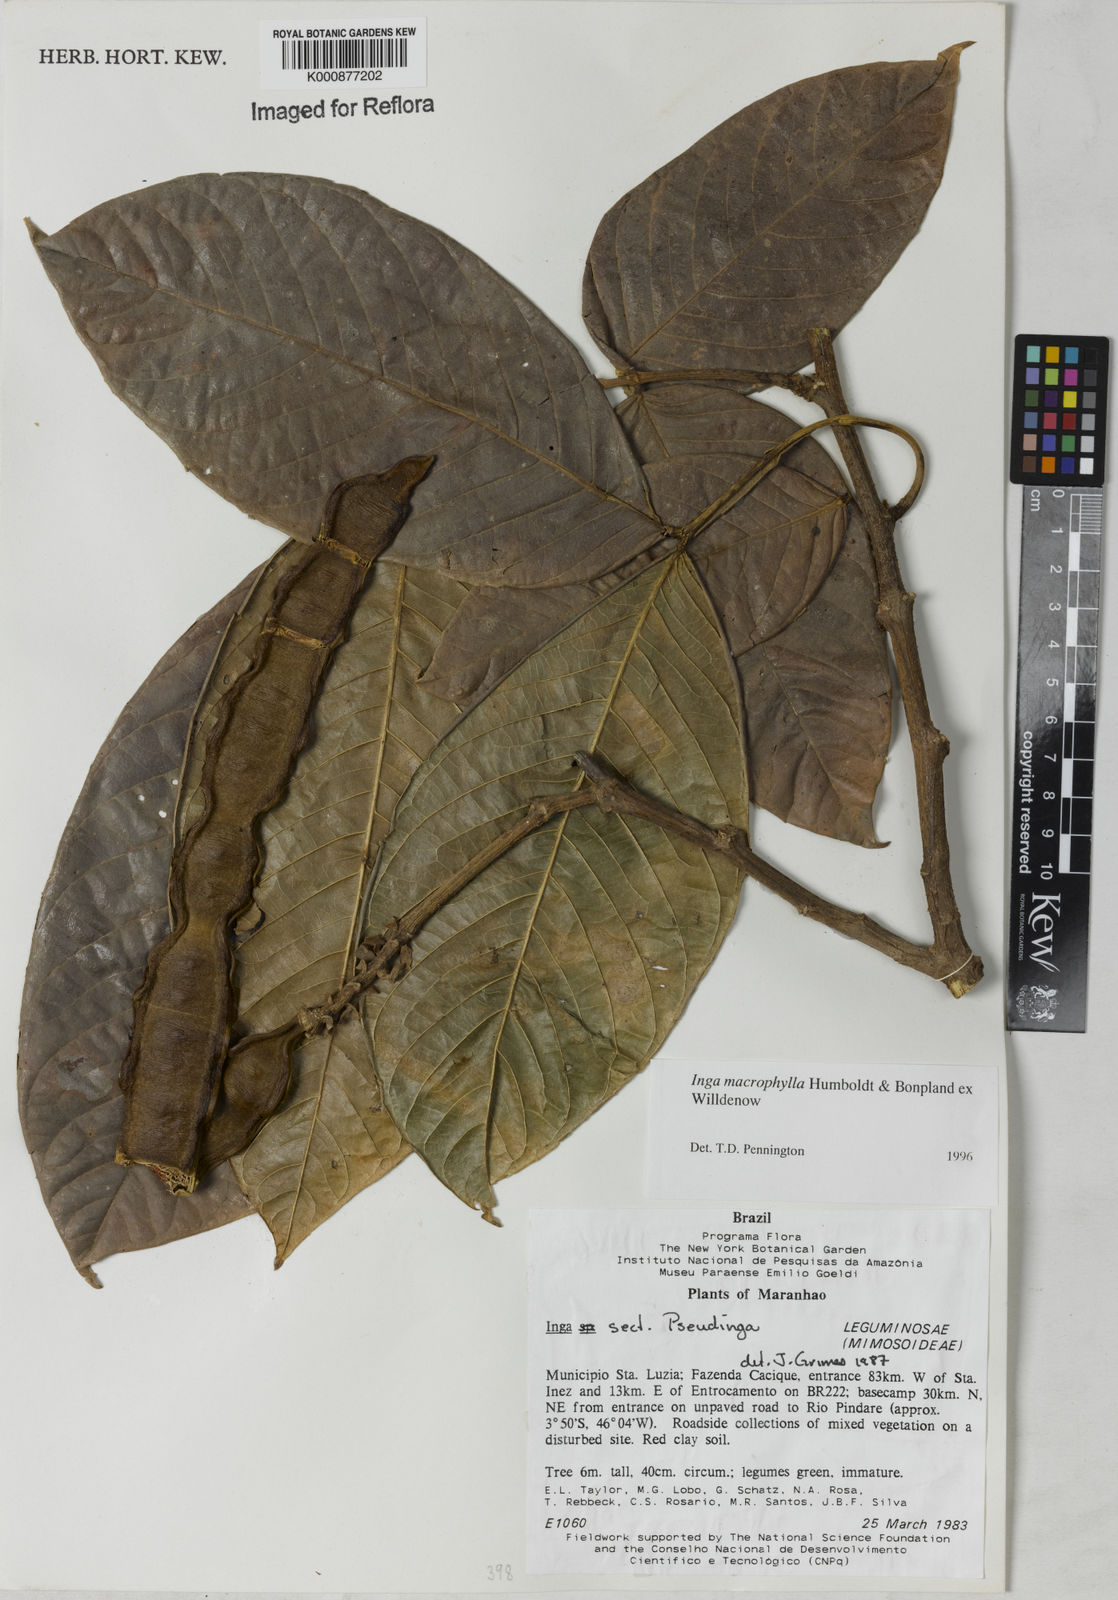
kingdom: Plantae
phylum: Tracheophyta
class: Magnoliopsida
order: Fabales
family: Fabaceae
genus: Inga
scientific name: Inga macrophylla
